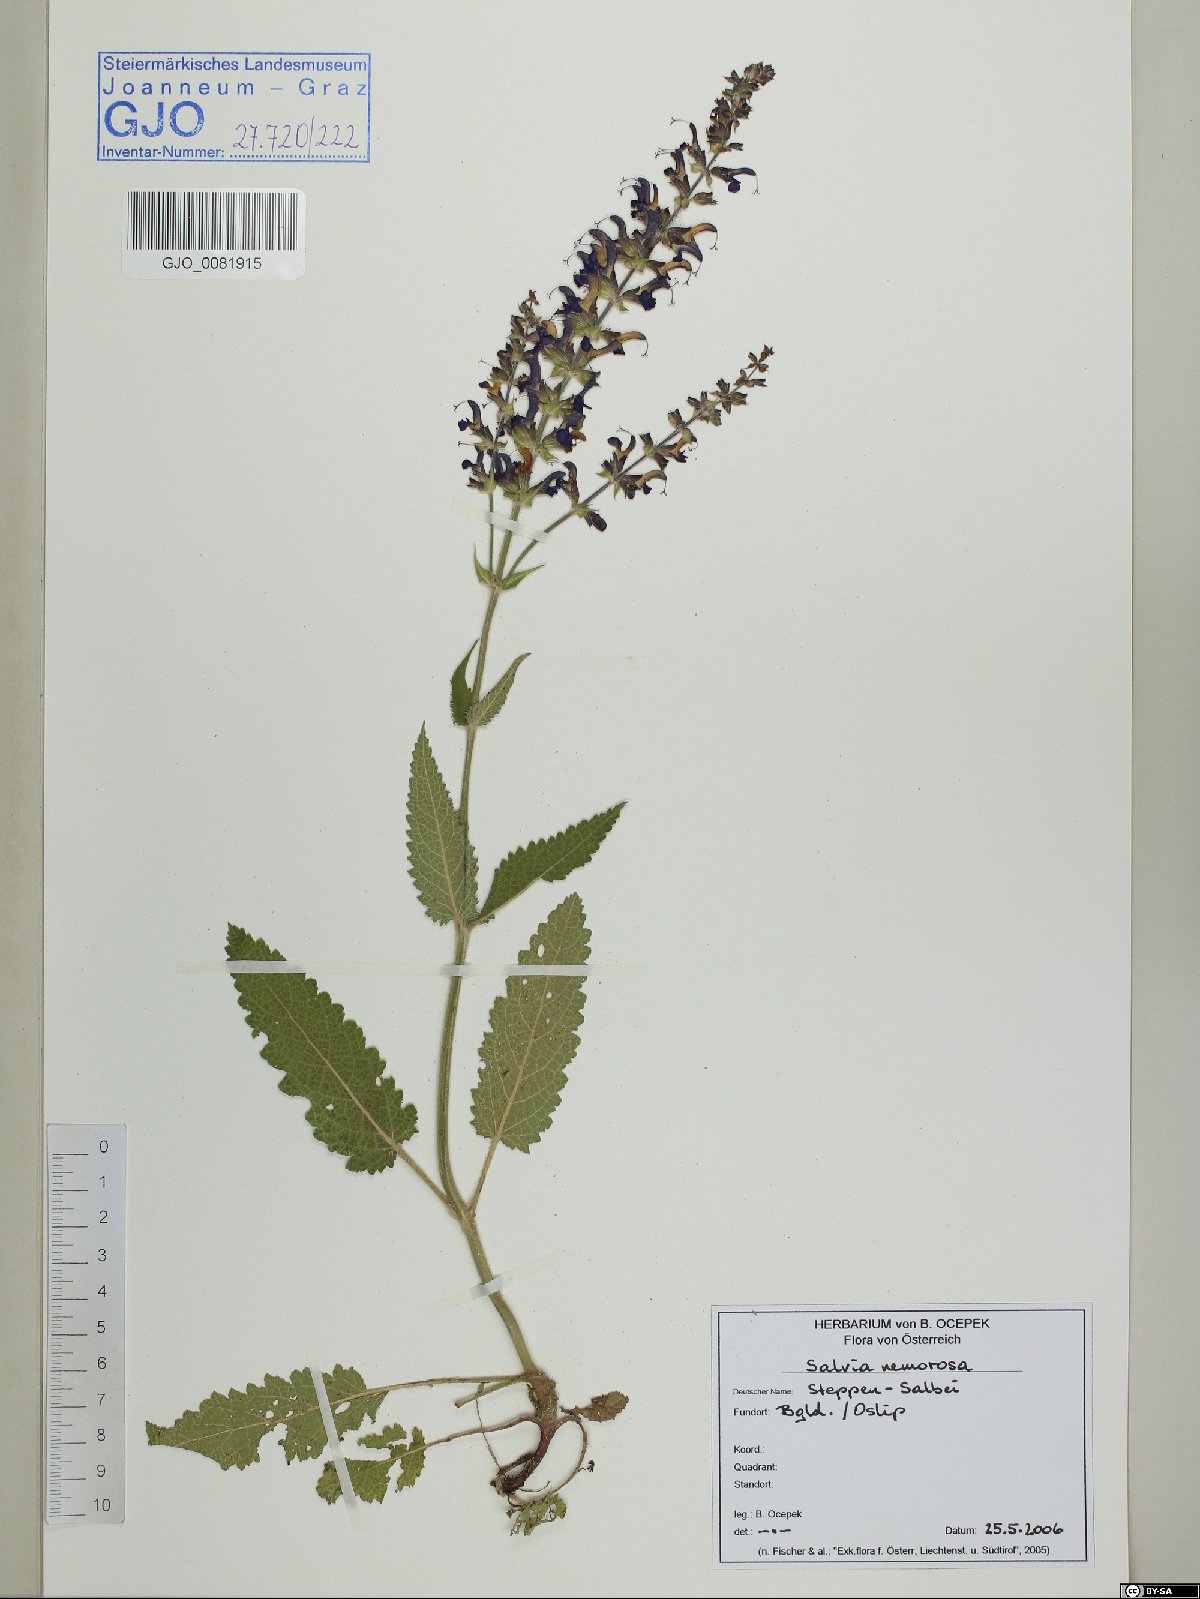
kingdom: Plantae
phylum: Tracheophyta
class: Magnoliopsida
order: Lamiales
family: Lamiaceae
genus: Salvia
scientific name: Salvia nemorosa
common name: Balkan clary
